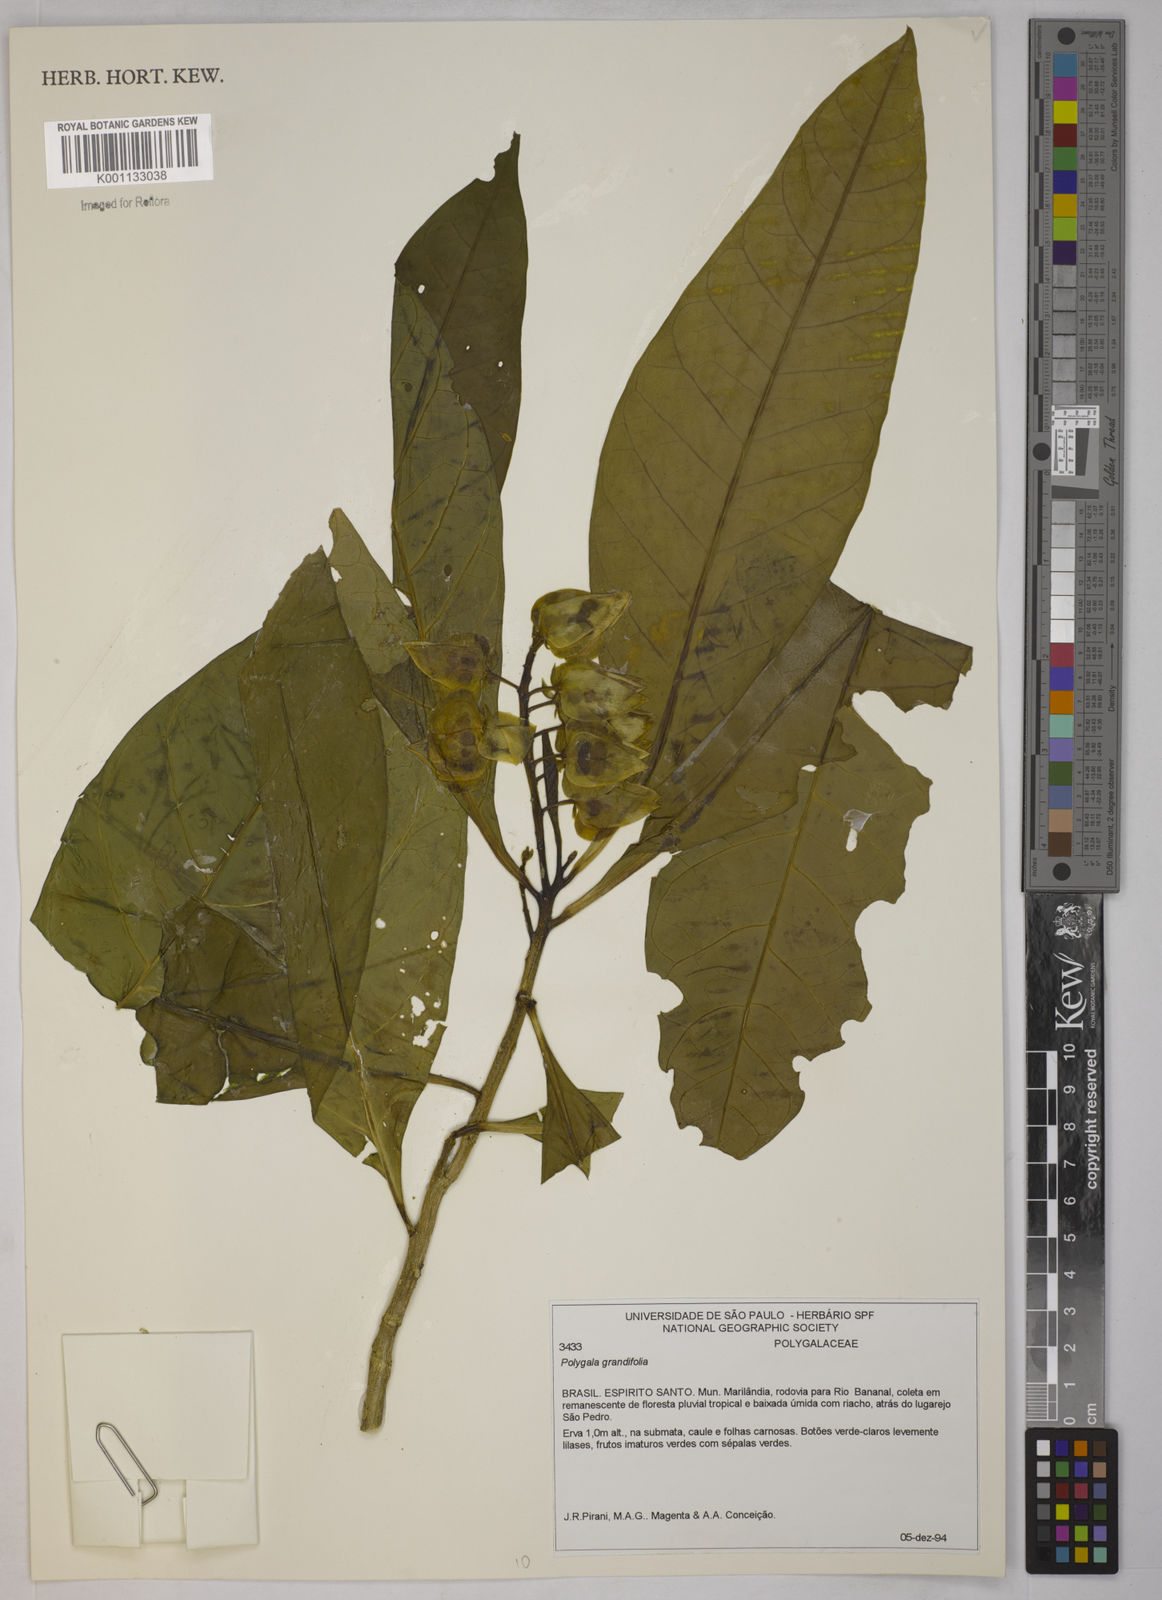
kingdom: Plantae
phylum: Tracheophyta
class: Magnoliopsida
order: Fabales
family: Polygalaceae
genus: Caamembeca
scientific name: Caamembeca grandifolia
